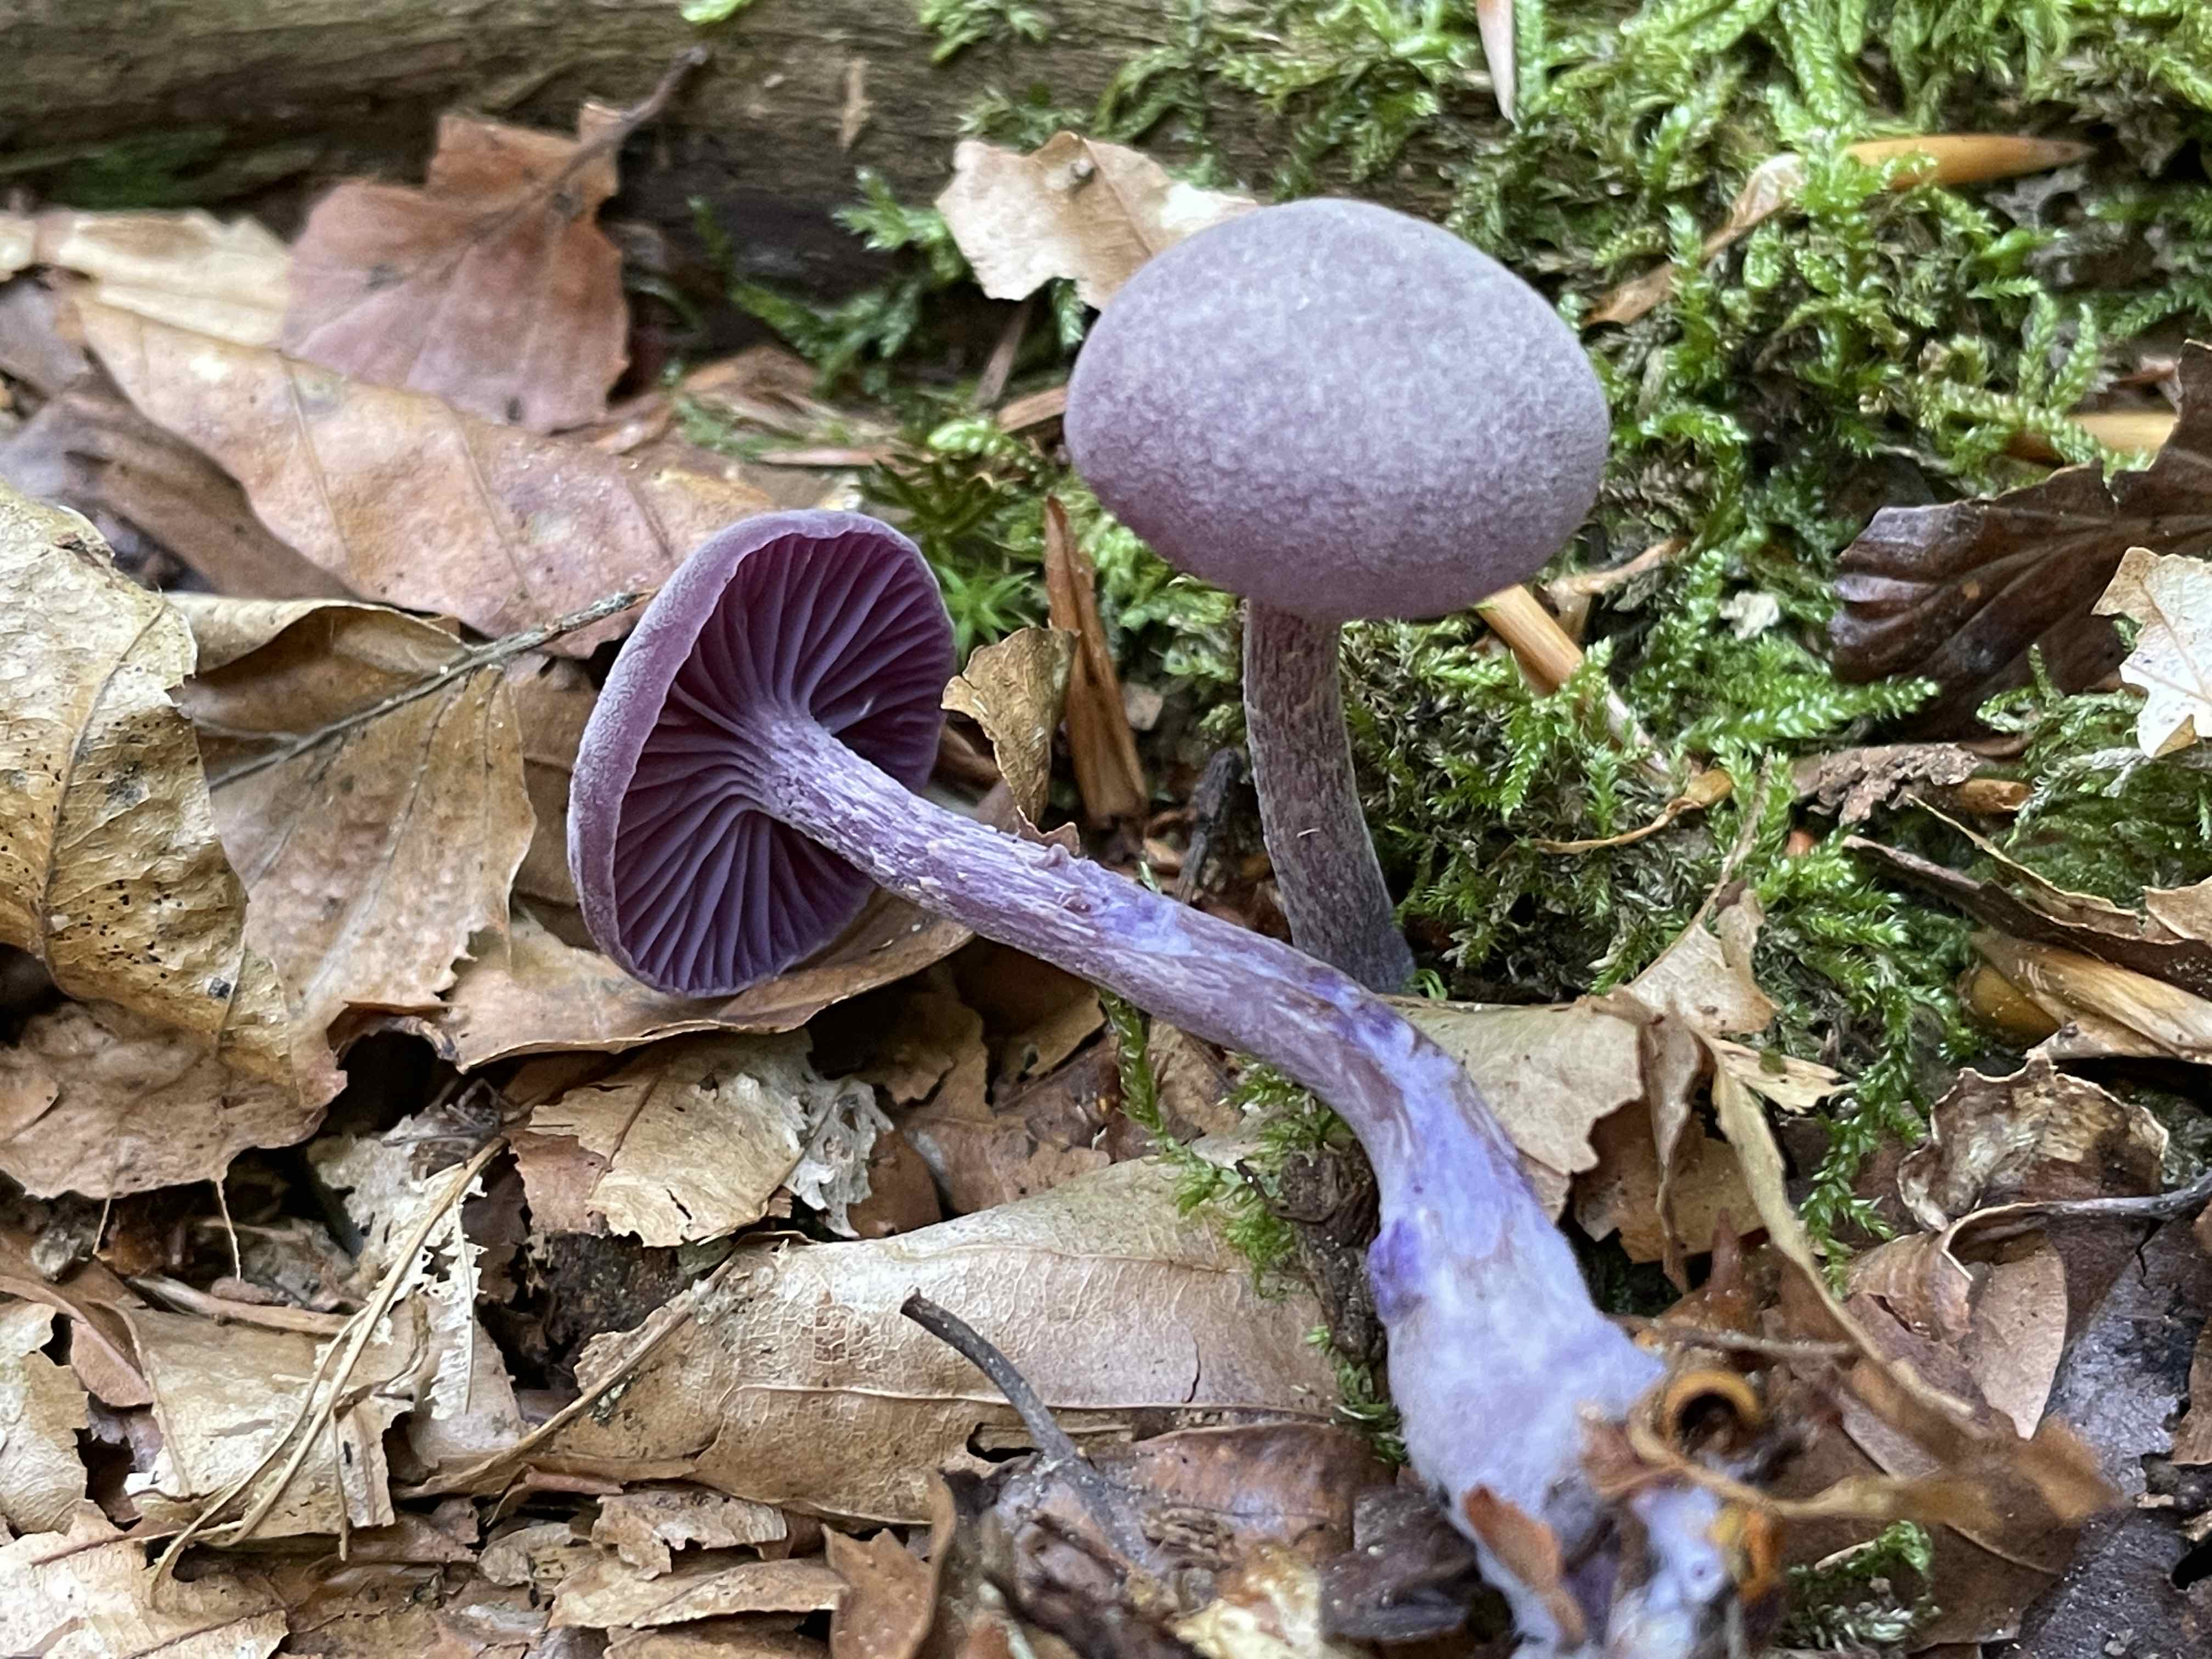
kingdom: Fungi
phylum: Basidiomycota
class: Agaricomycetes
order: Agaricales
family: Hydnangiaceae
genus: Laccaria
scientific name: Laccaria amethystina
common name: violet ametysthat
